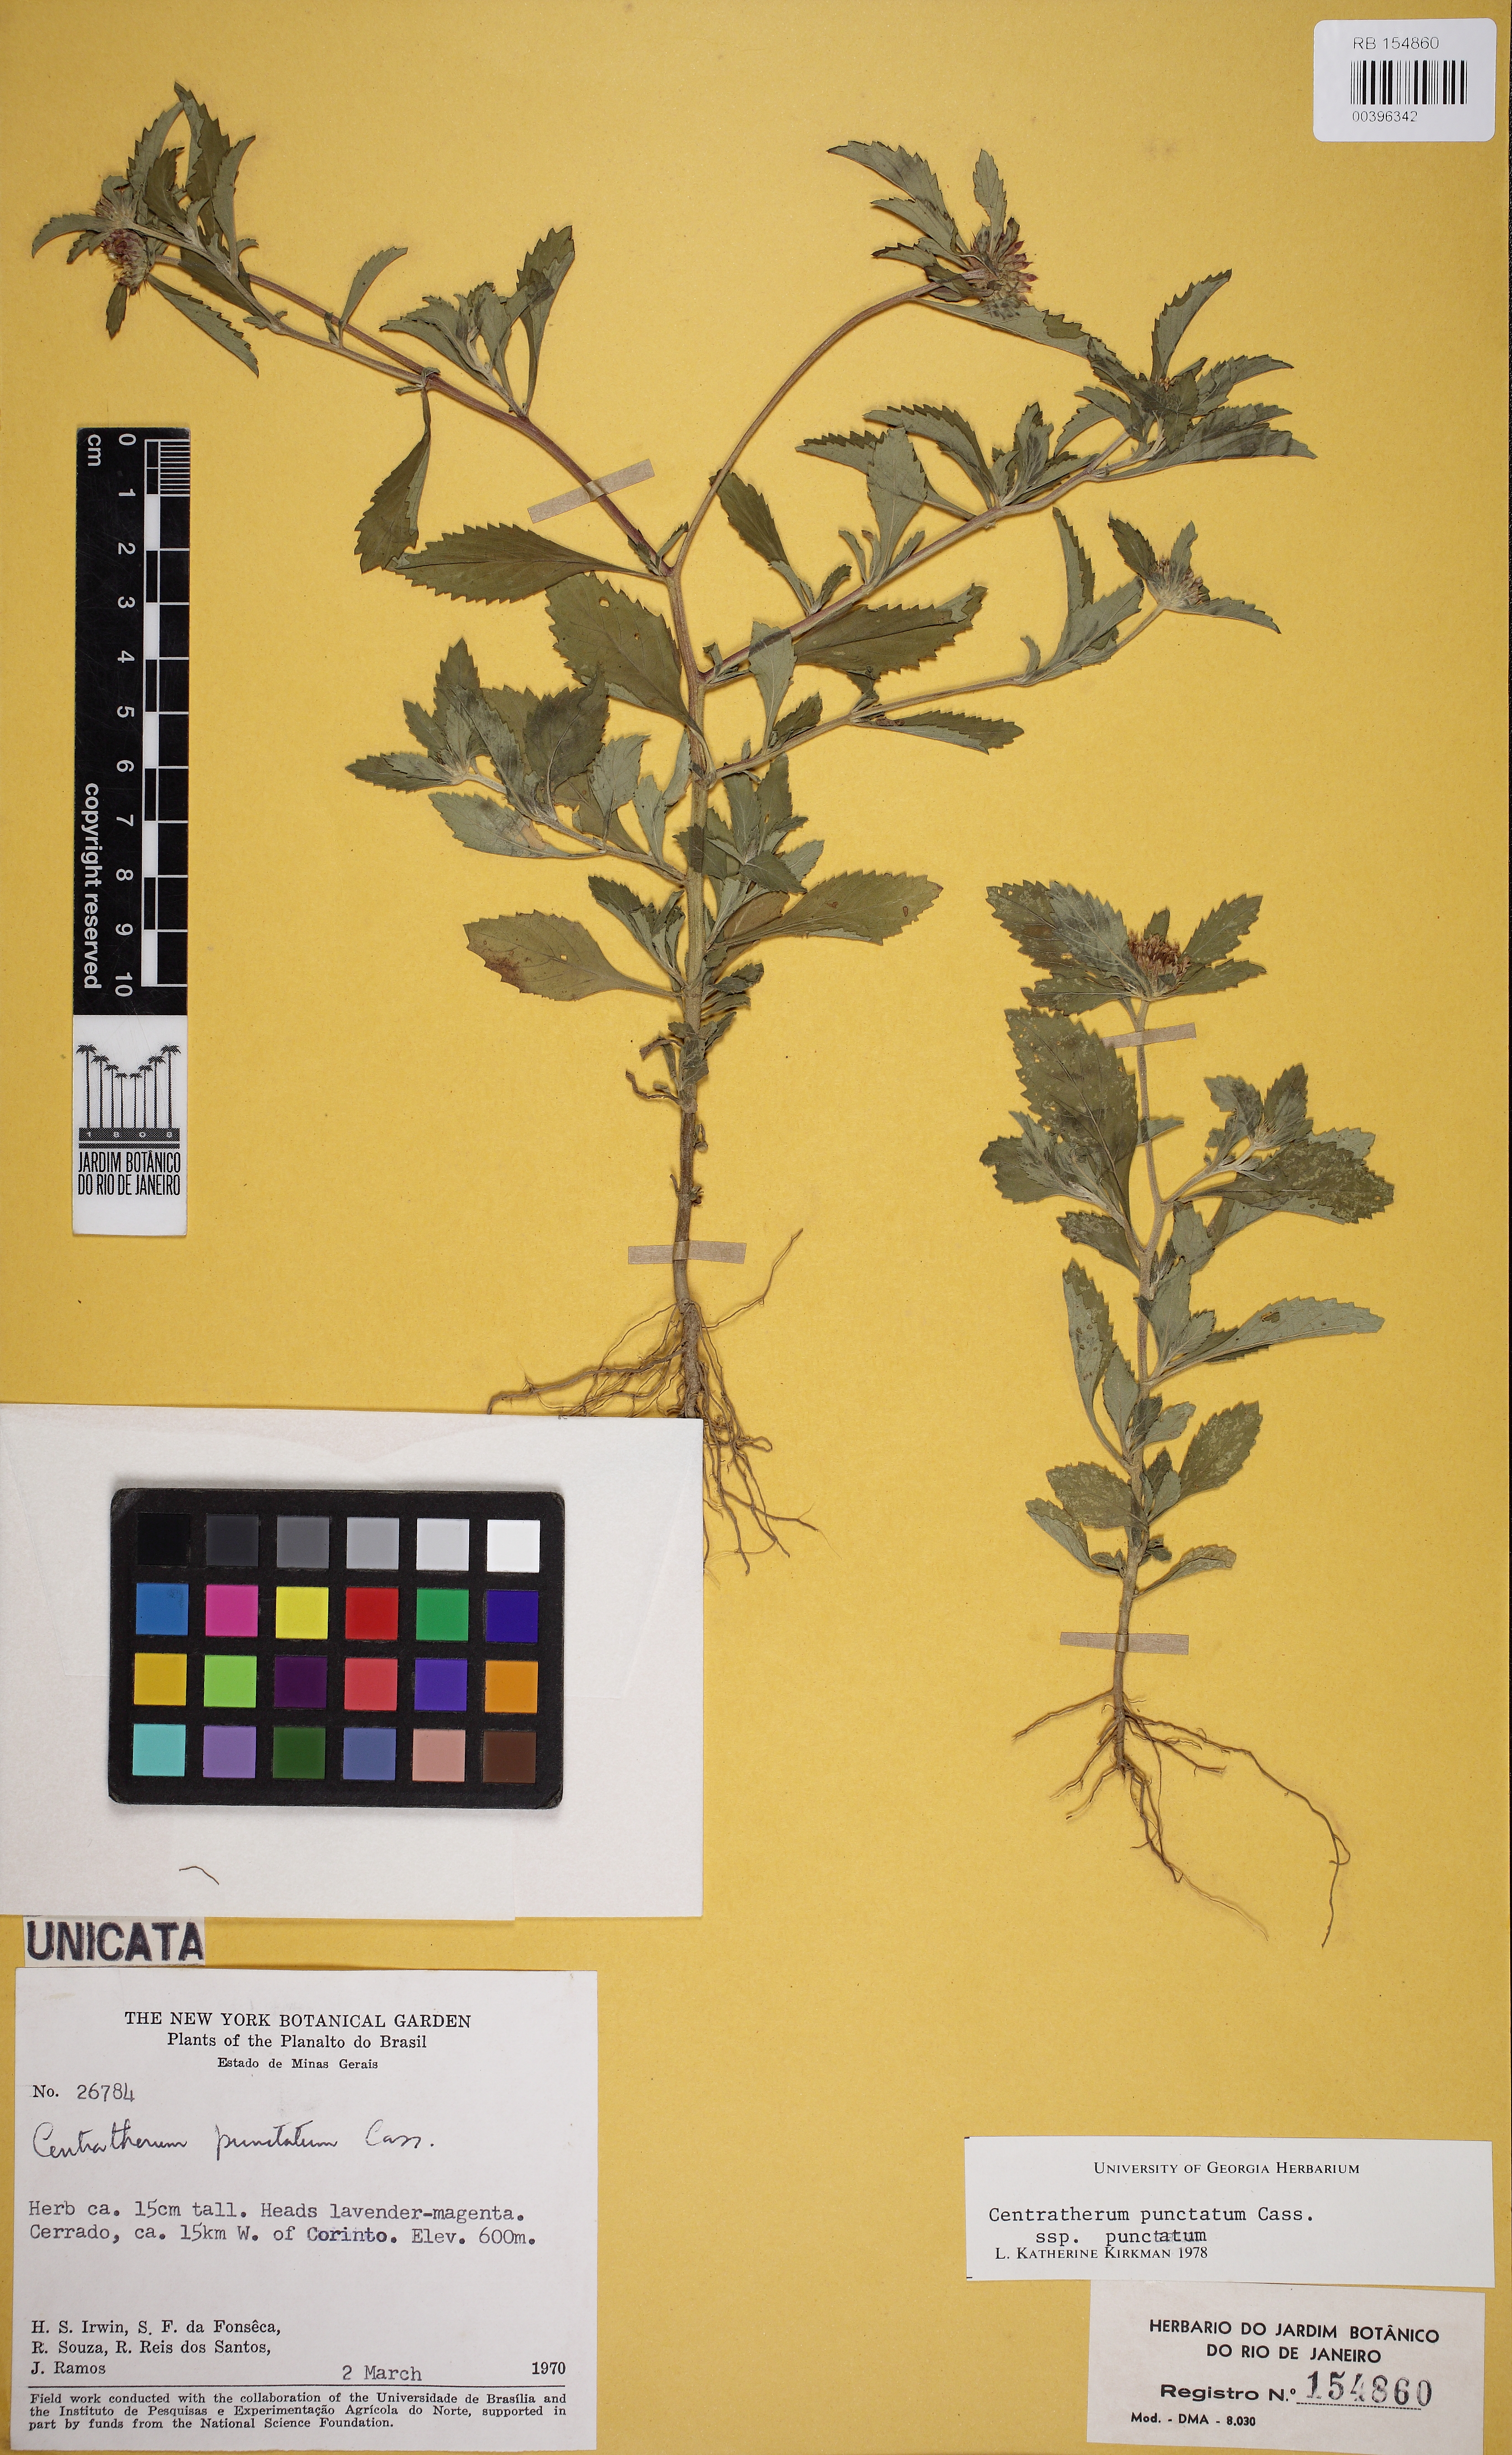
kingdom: Plantae
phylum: Tracheophyta
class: Magnoliopsida
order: Asterales
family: Asteraceae
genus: Centratherum
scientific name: Centratherum punctatum
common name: Larkdaisy
